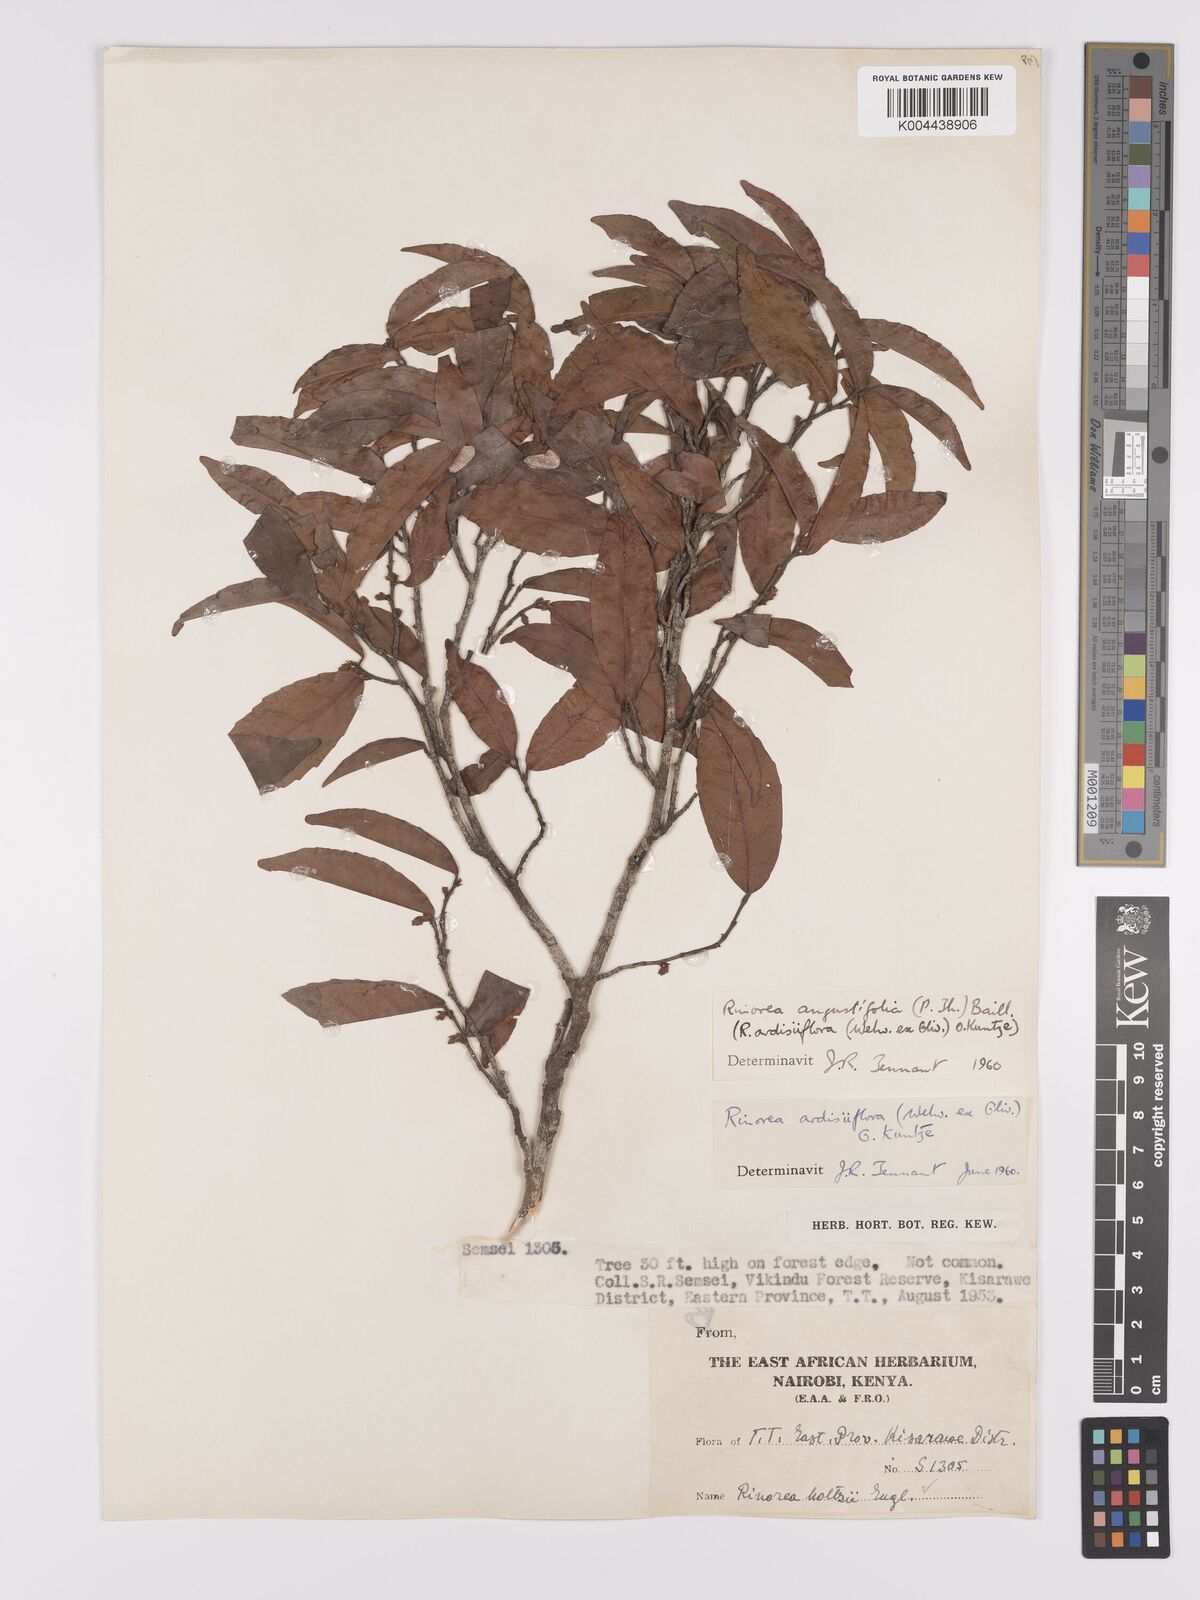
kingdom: Plantae
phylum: Tracheophyta
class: Magnoliopsida
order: Malpighiales
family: Violaceae
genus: Rinorea
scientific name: Rinorea angustifolia
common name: White violet-bush
